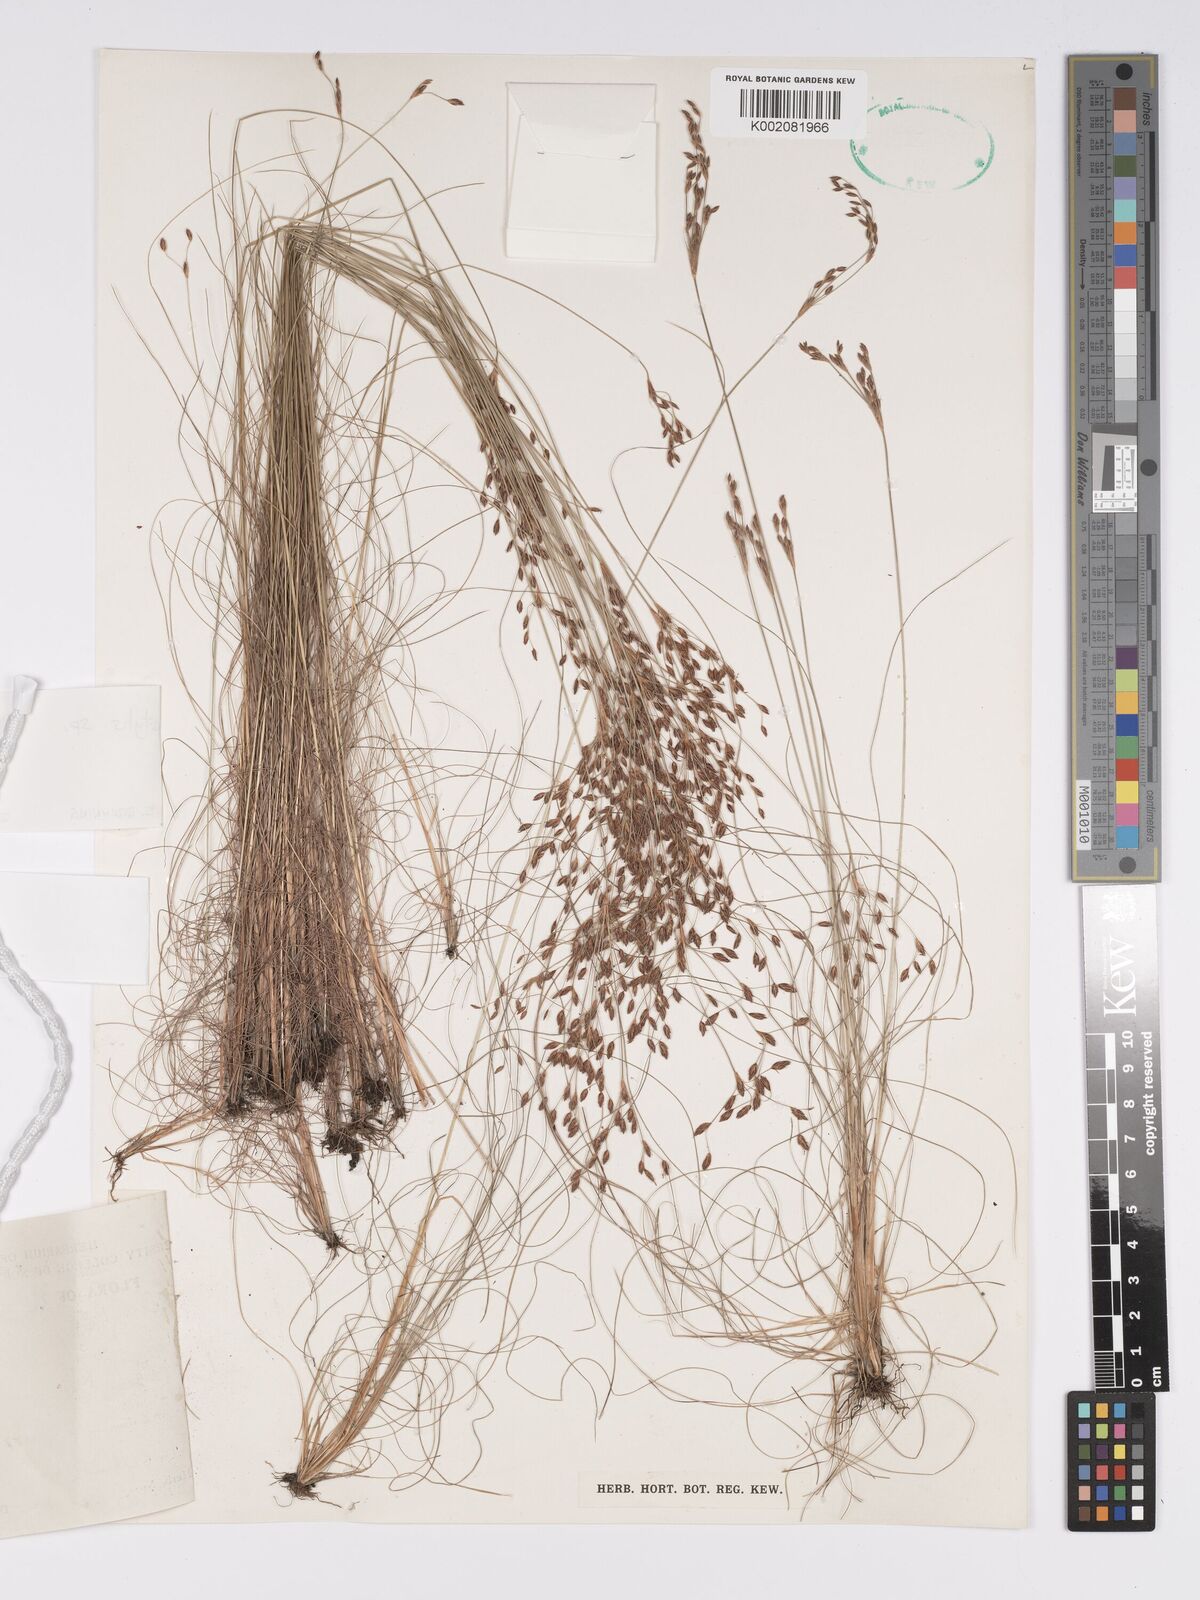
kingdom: Plantae
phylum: Tracheophyta
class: Magnoliopsida
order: Asterales
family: Asteraceae
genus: Bulbostylis
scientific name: Bulbostylis
